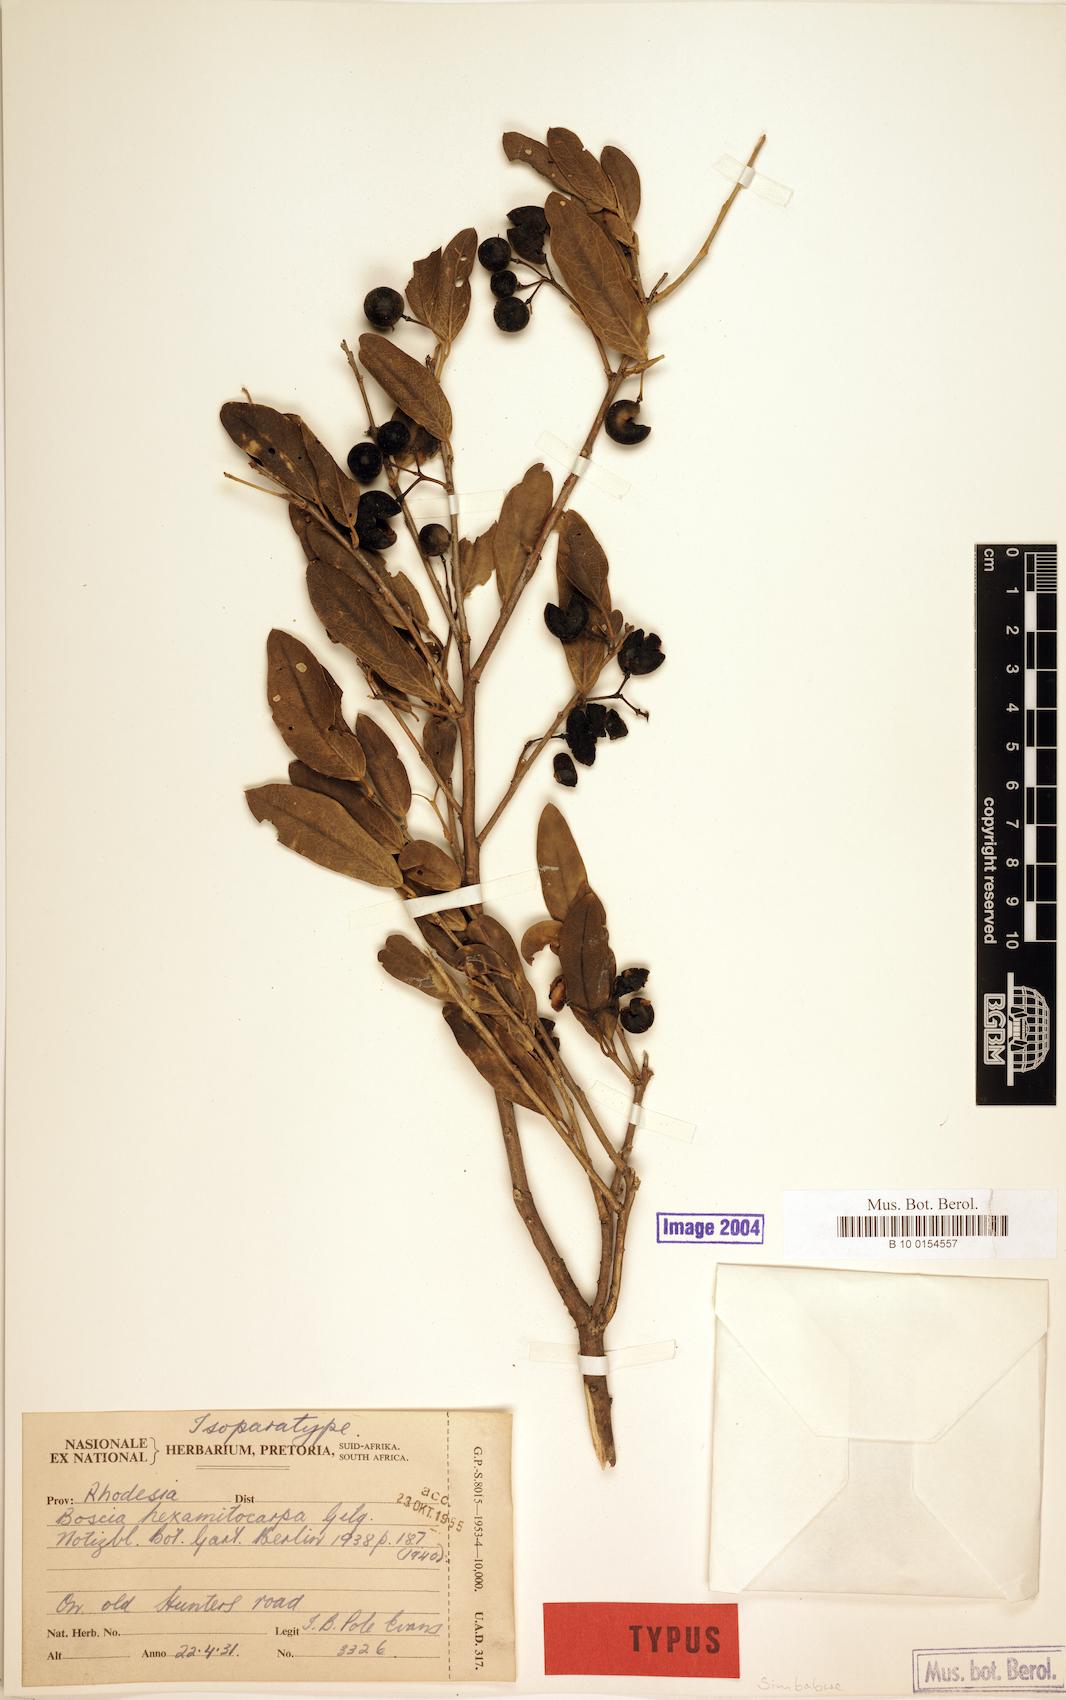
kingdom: Plantae
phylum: Tracheophyta
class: Magnoliopsida
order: Brassicales
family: Capparaceae
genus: Boscia
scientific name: Boscia matabelensis
